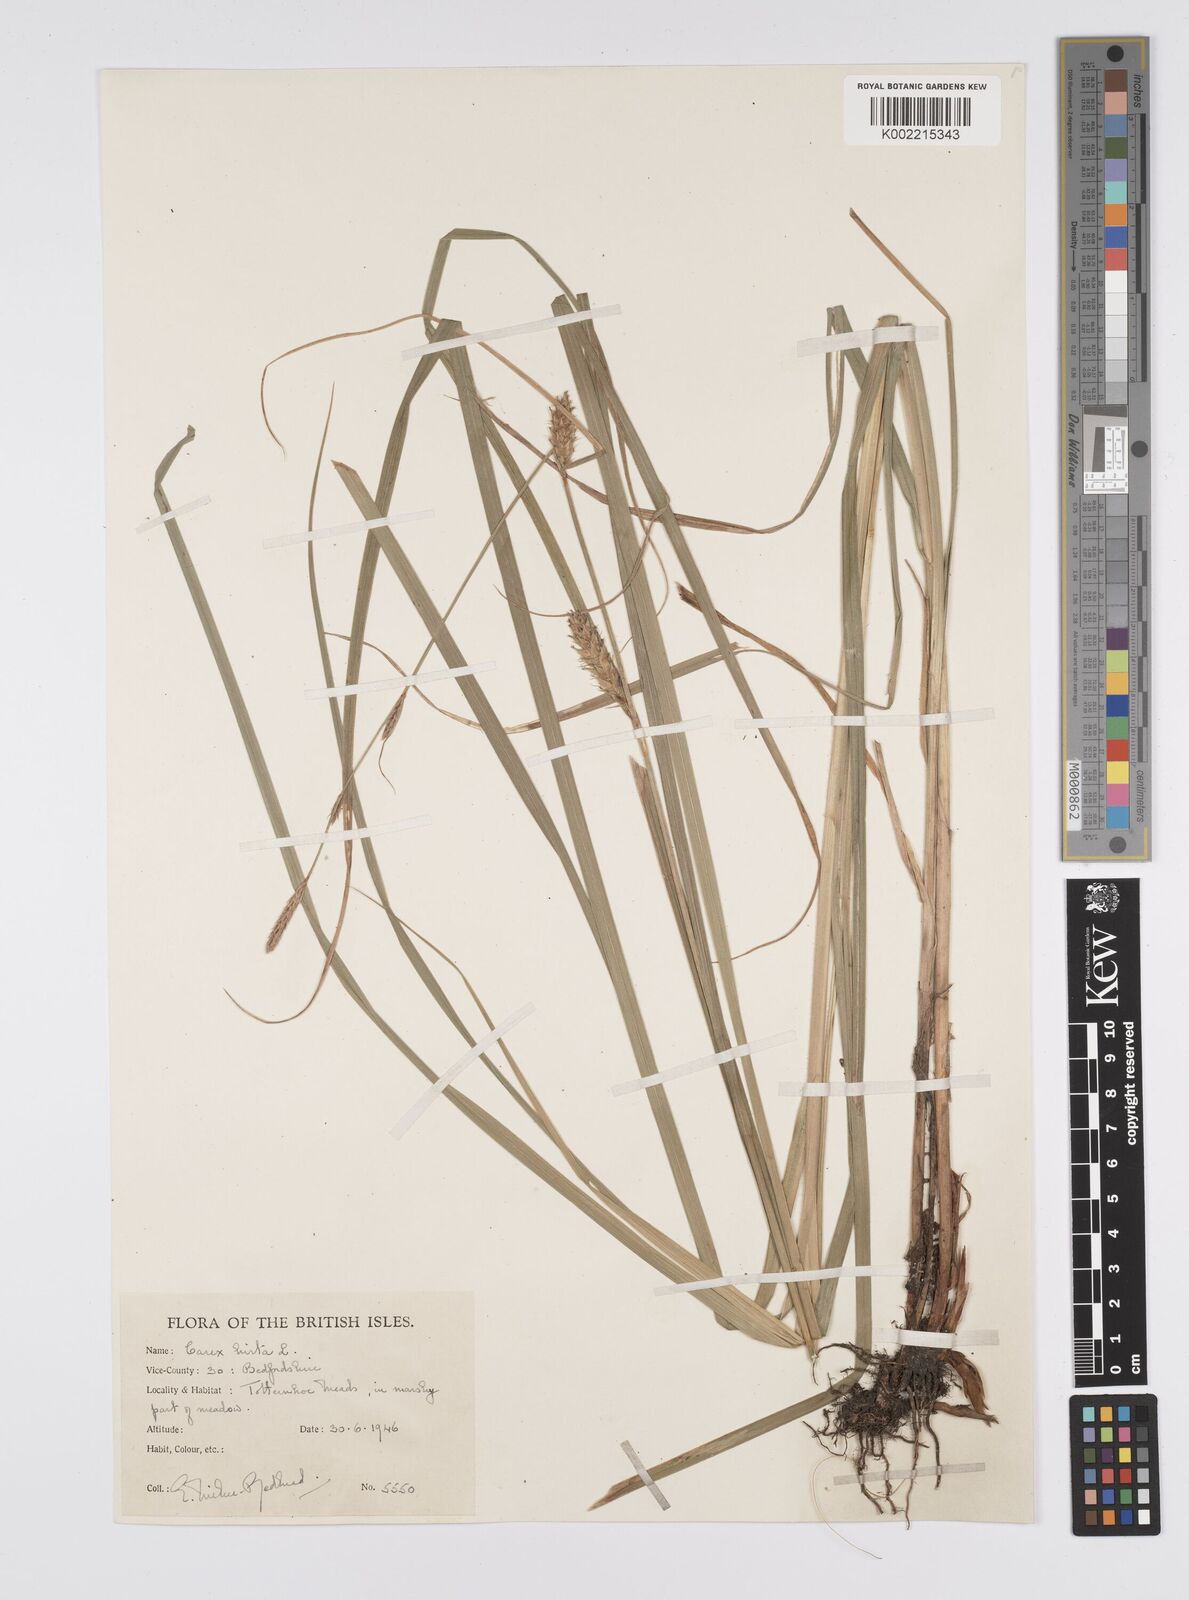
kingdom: Plantae
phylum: Tracheophyta
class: Liliopsida
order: Poales
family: Cyperaceae
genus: Carex
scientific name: Carex hirta
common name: Hairy sedge
